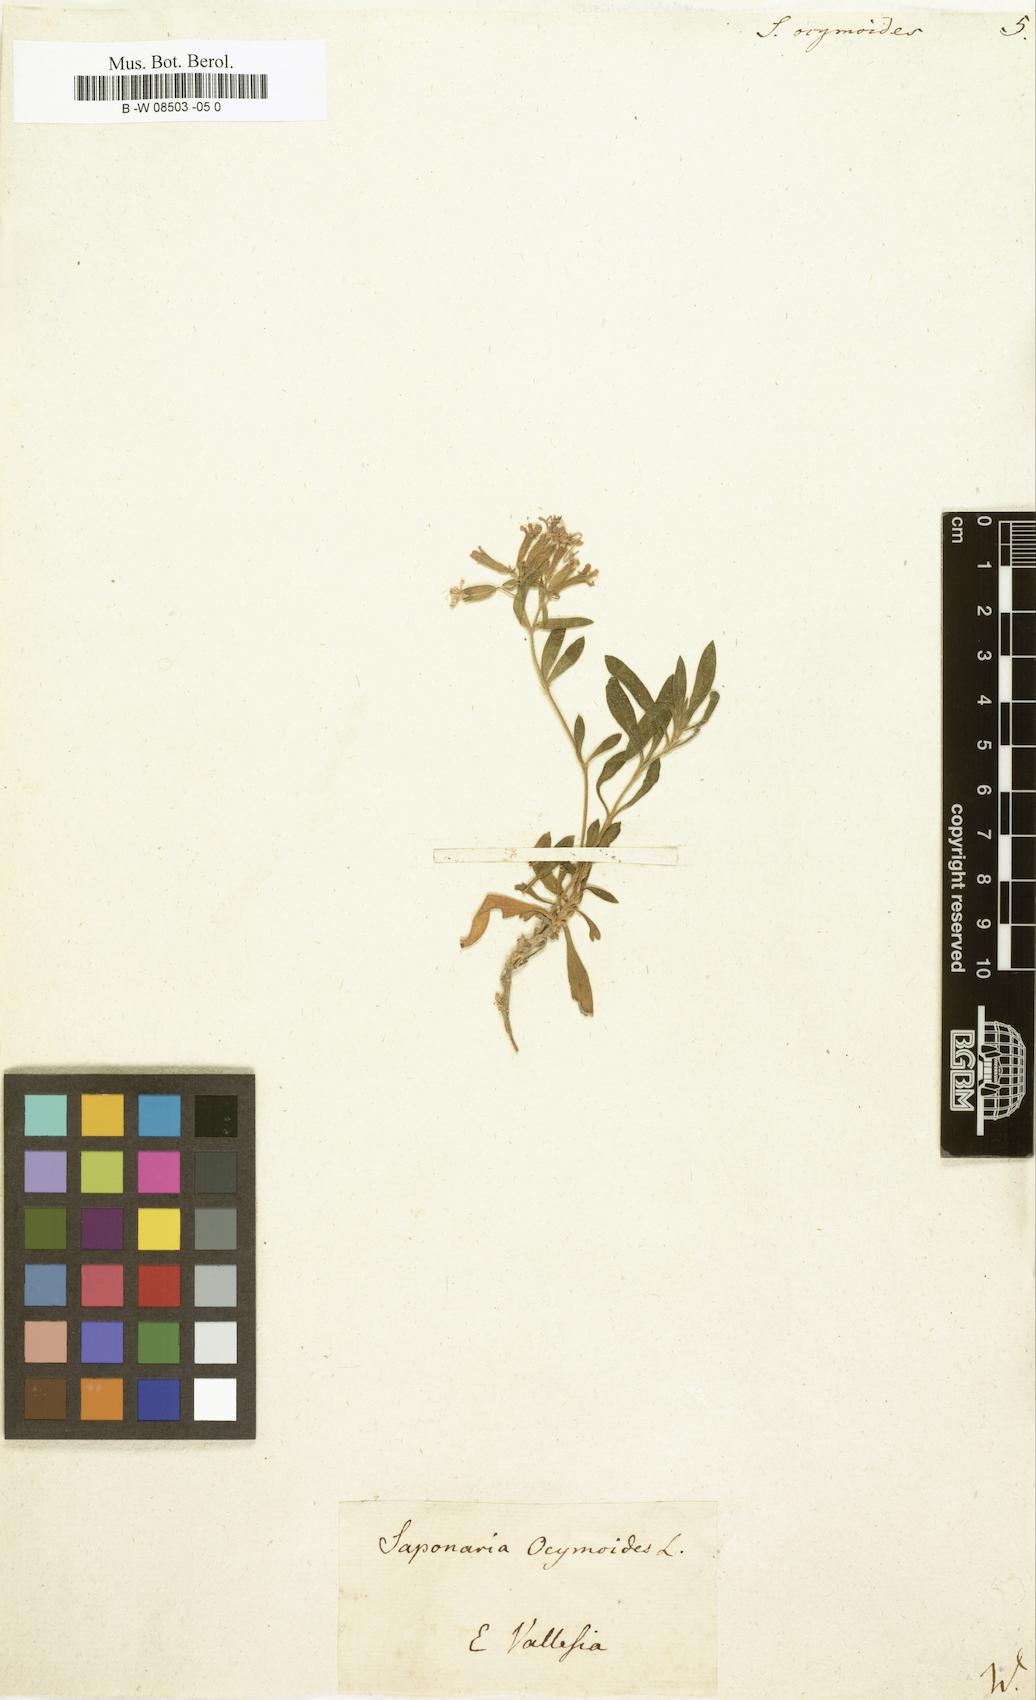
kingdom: Plantae
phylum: Tracheophyta
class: Magnoliopsida
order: Caryophyllales
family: Caryophyllaceae
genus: Saponaria
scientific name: Saponaria ocymoides
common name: Rock soapwort
